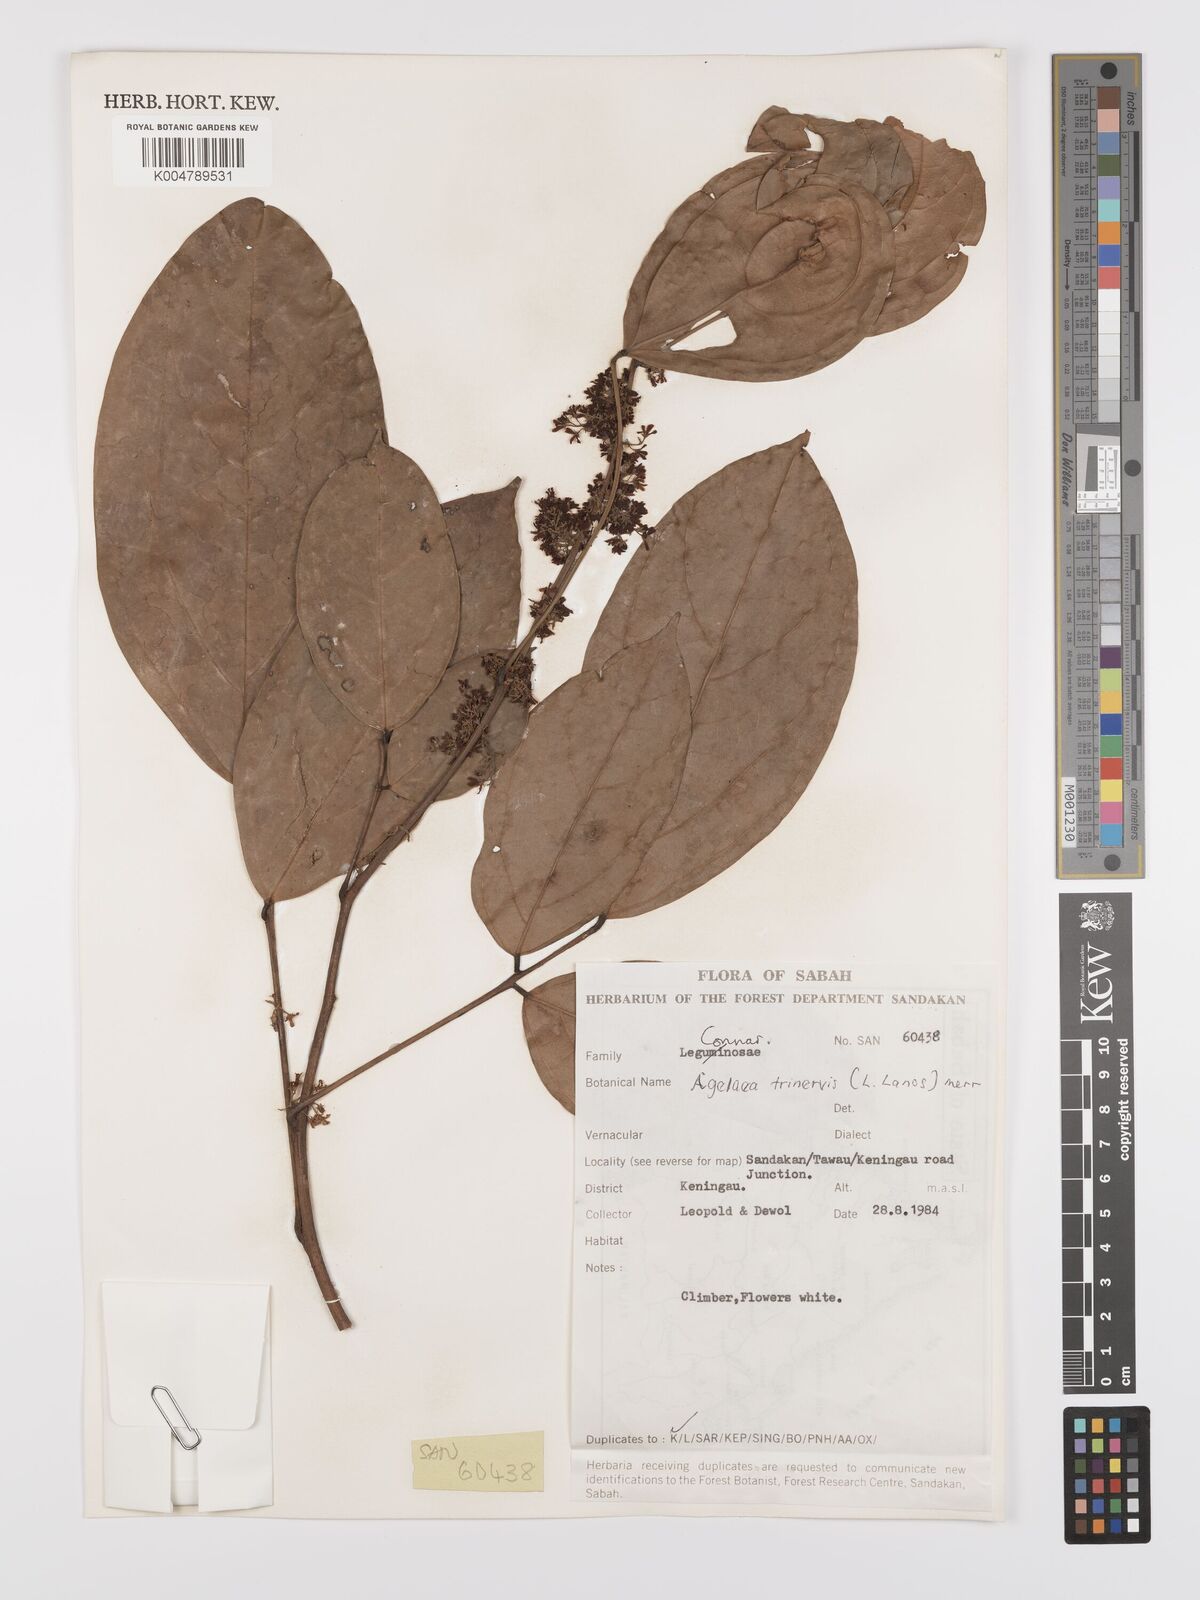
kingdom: Plantae
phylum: Tracheophyta
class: Magnoliopsida
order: Oxalidales
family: Connaraceae
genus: Agelaea
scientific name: Agelaea trinervis
